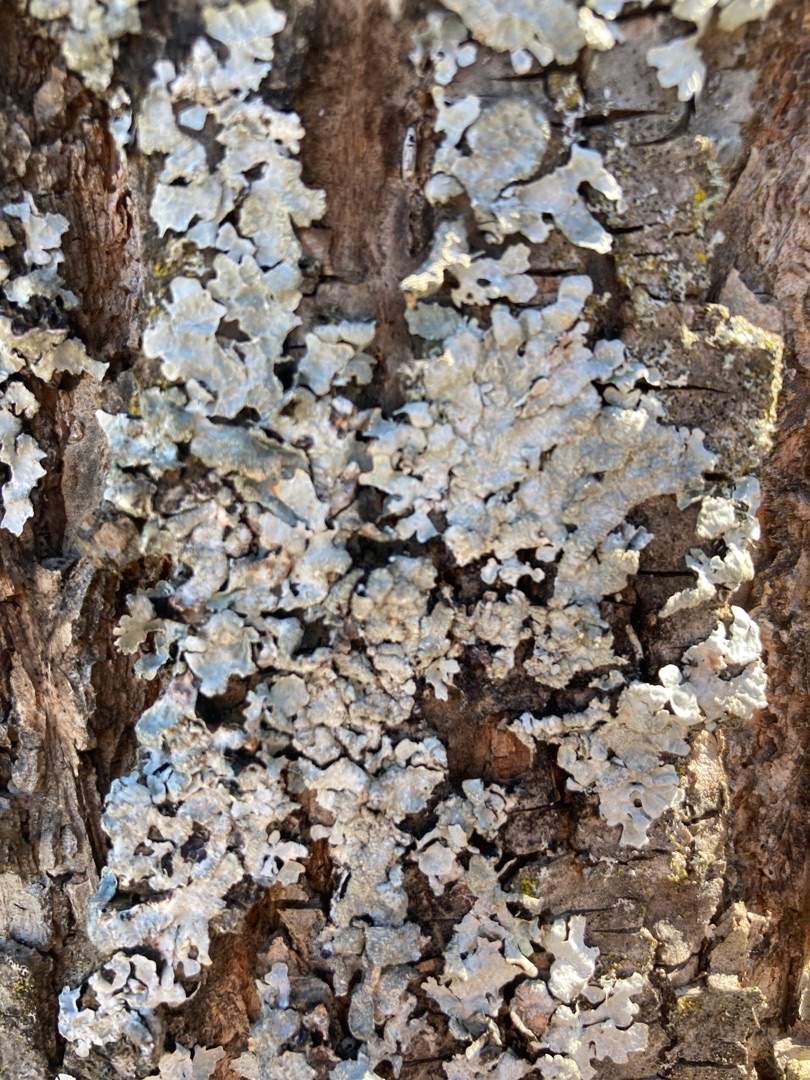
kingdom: Fungi
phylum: Ascomycota
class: Lecanoromycetes
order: Lecanorales
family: Parmeliaceae
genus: Parmelia
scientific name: Parmelia sulcata
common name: Rynket skållav
